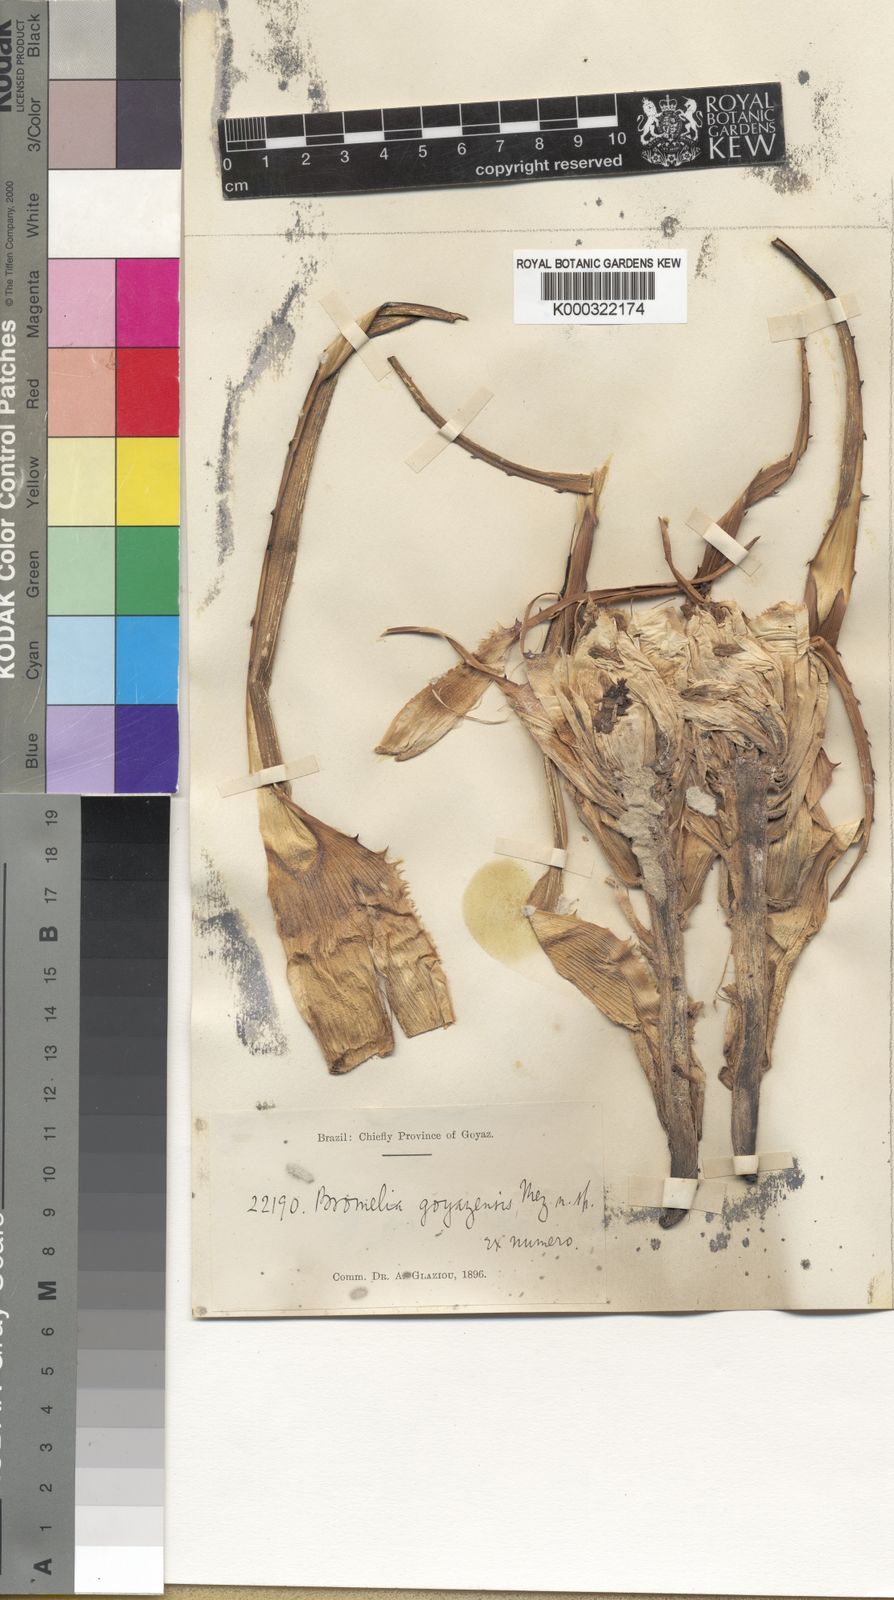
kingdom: Plantae
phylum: Tracheophyta
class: Liliopsida
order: Poales
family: Bromeliaceae
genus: Bromelia
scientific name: Bromelia goyazensis
